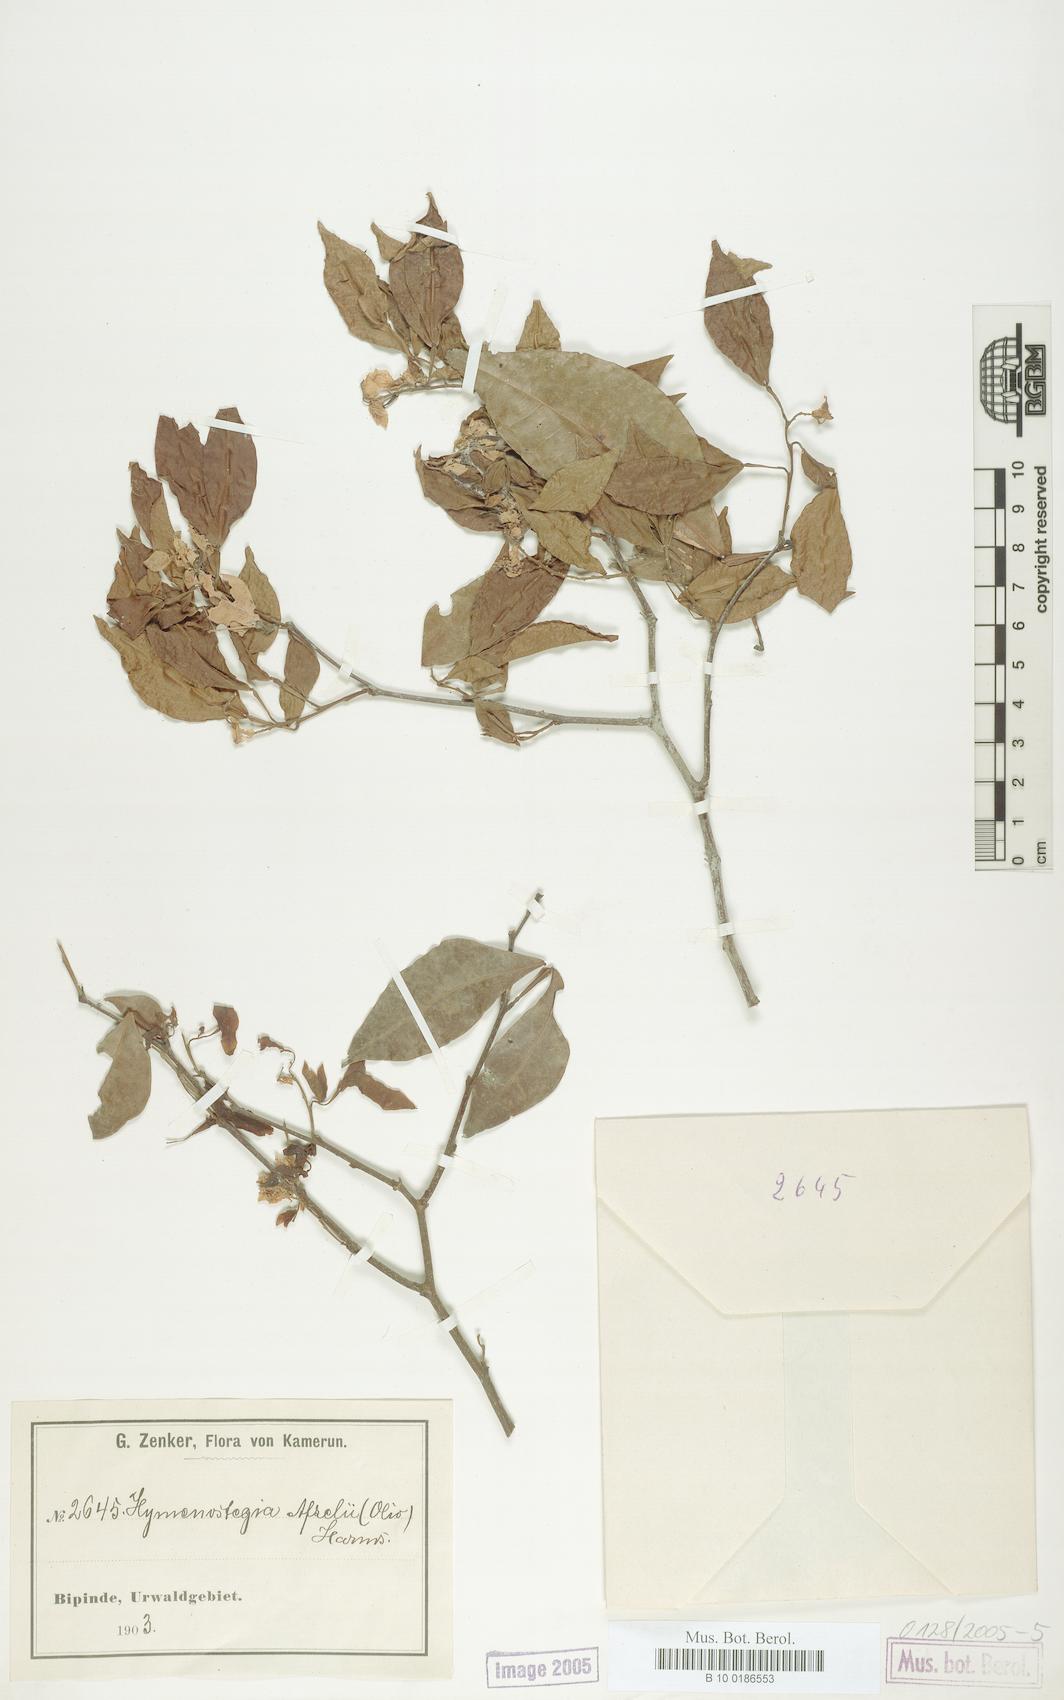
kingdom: Plantae
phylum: Tracheophyta
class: Magnoliopsida
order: Fabales
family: Fabaceae
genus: Annea
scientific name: Annea afzelii
